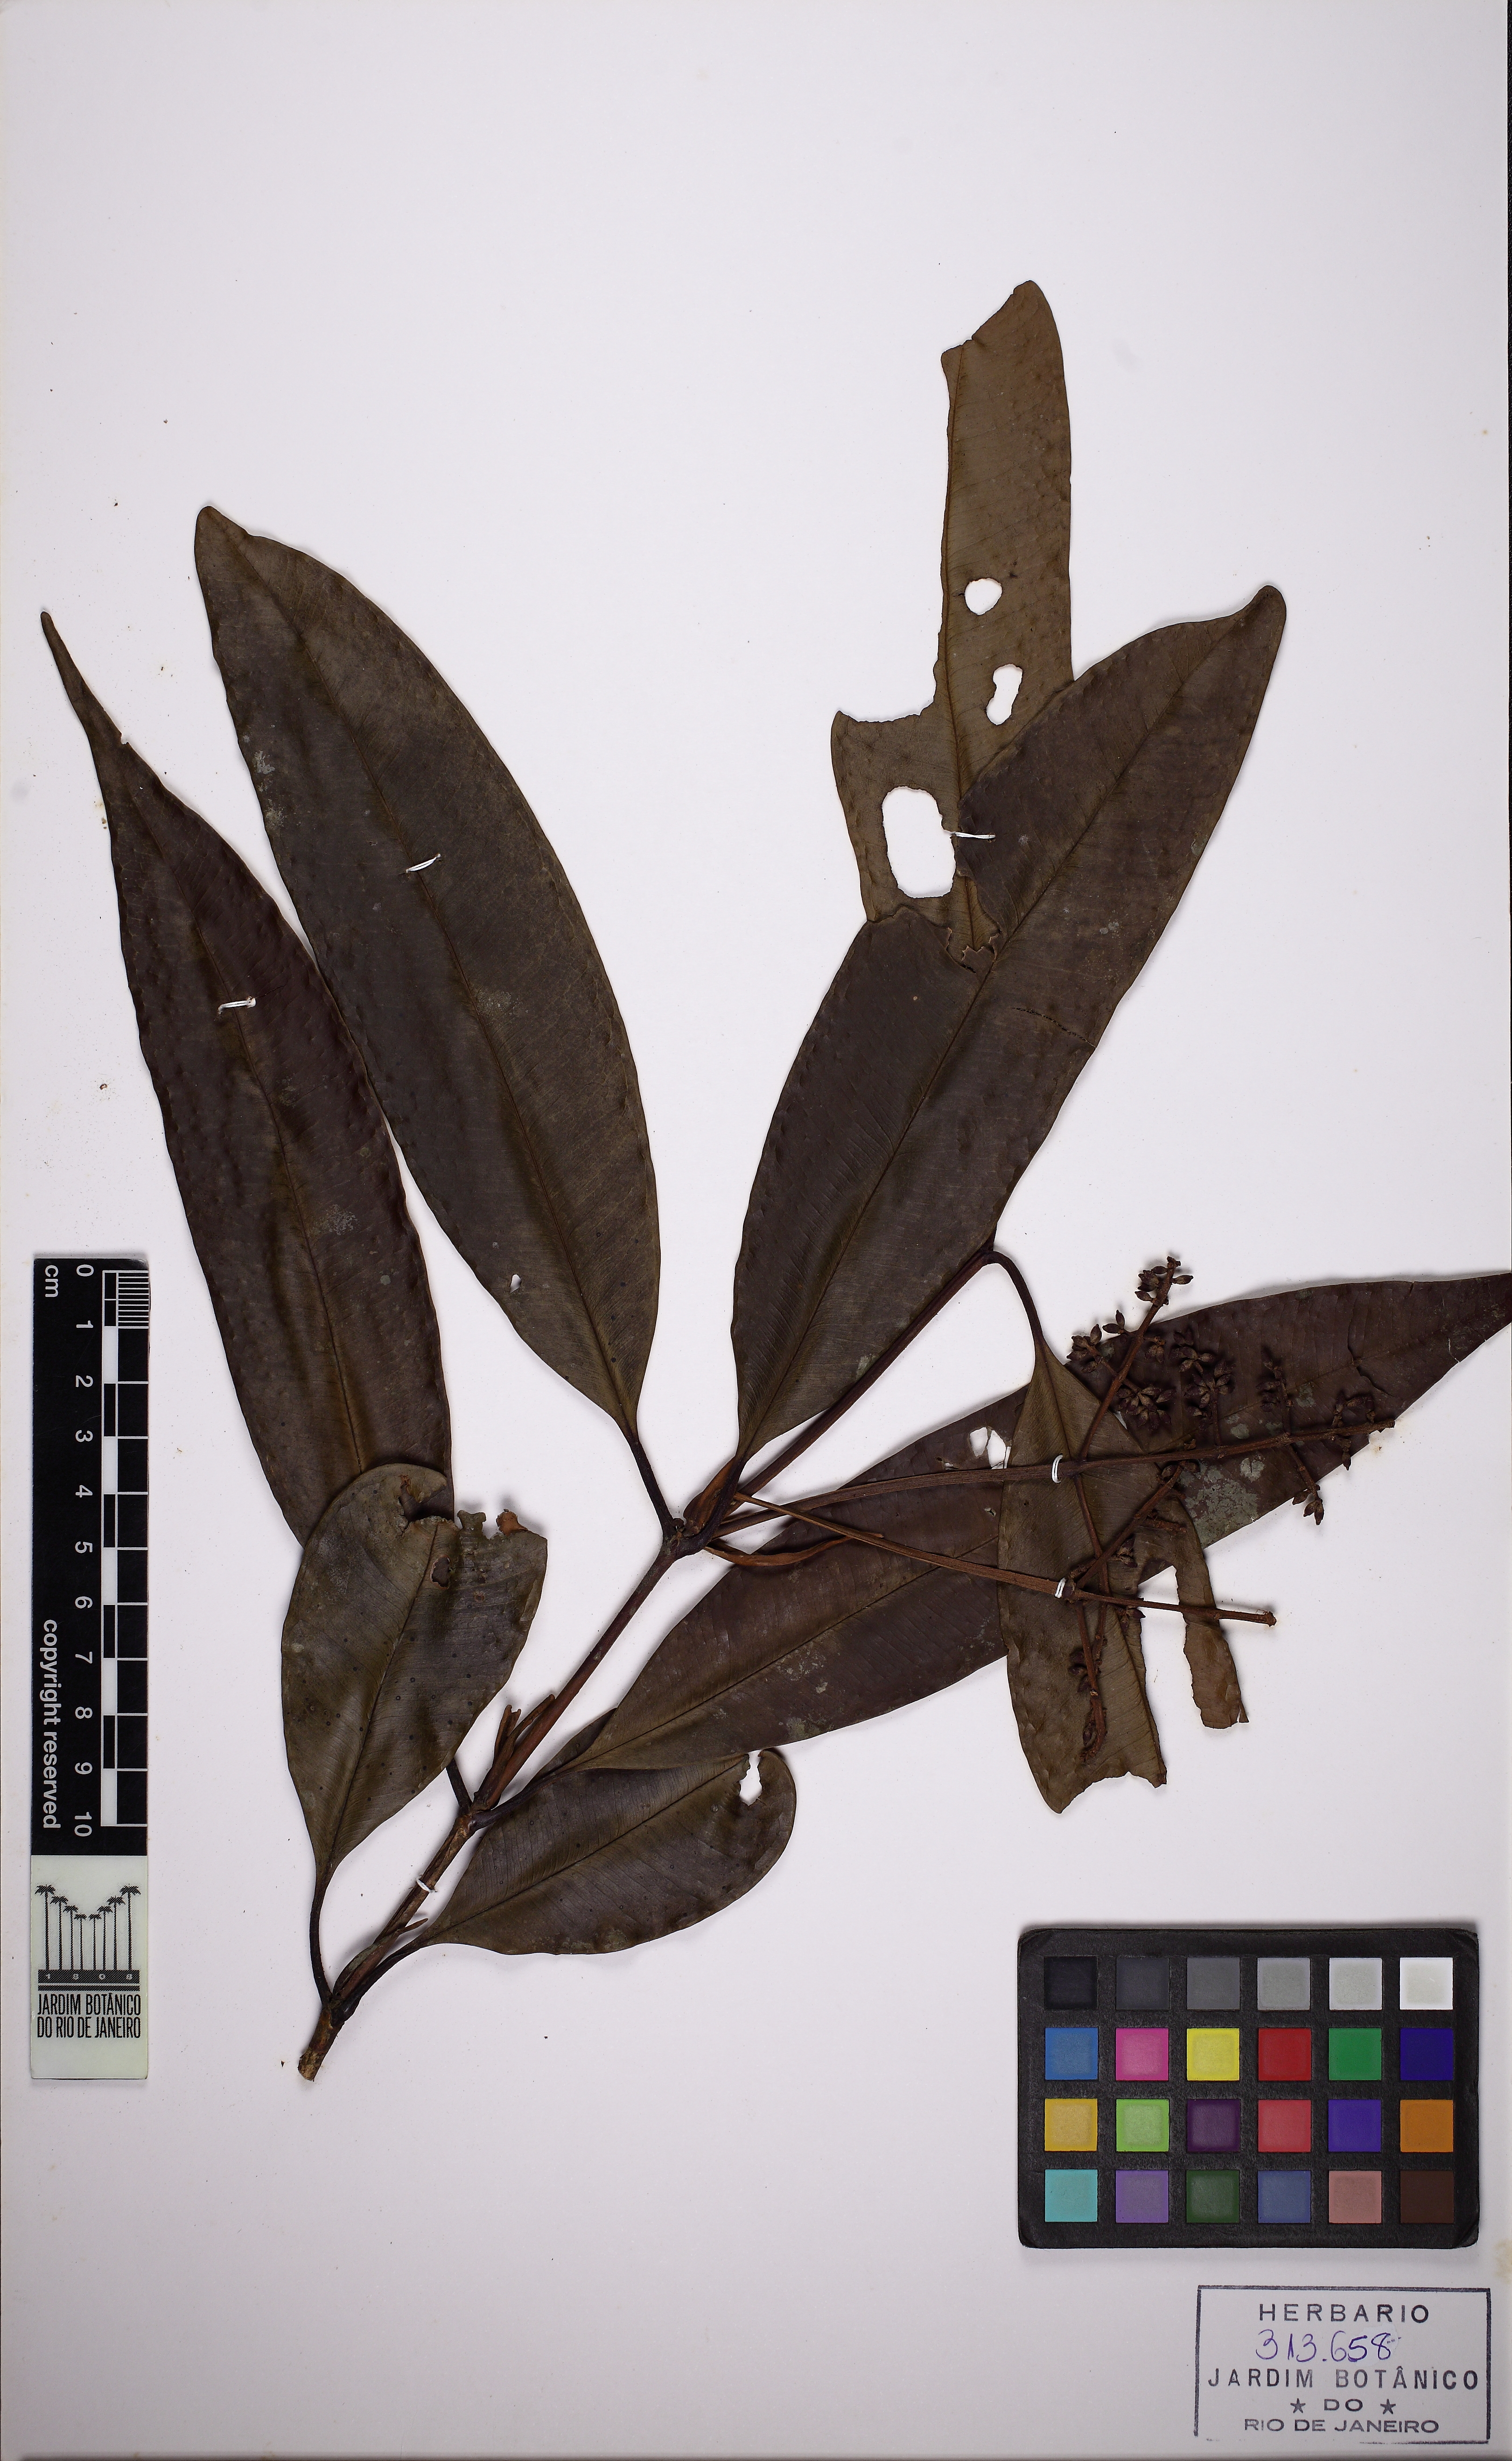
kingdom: Plantae
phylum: Tracheophyta
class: Magnoliopsida
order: Myrtales
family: Myrtaceae
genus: Myrcia
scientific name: Myrcia lonchophylla
